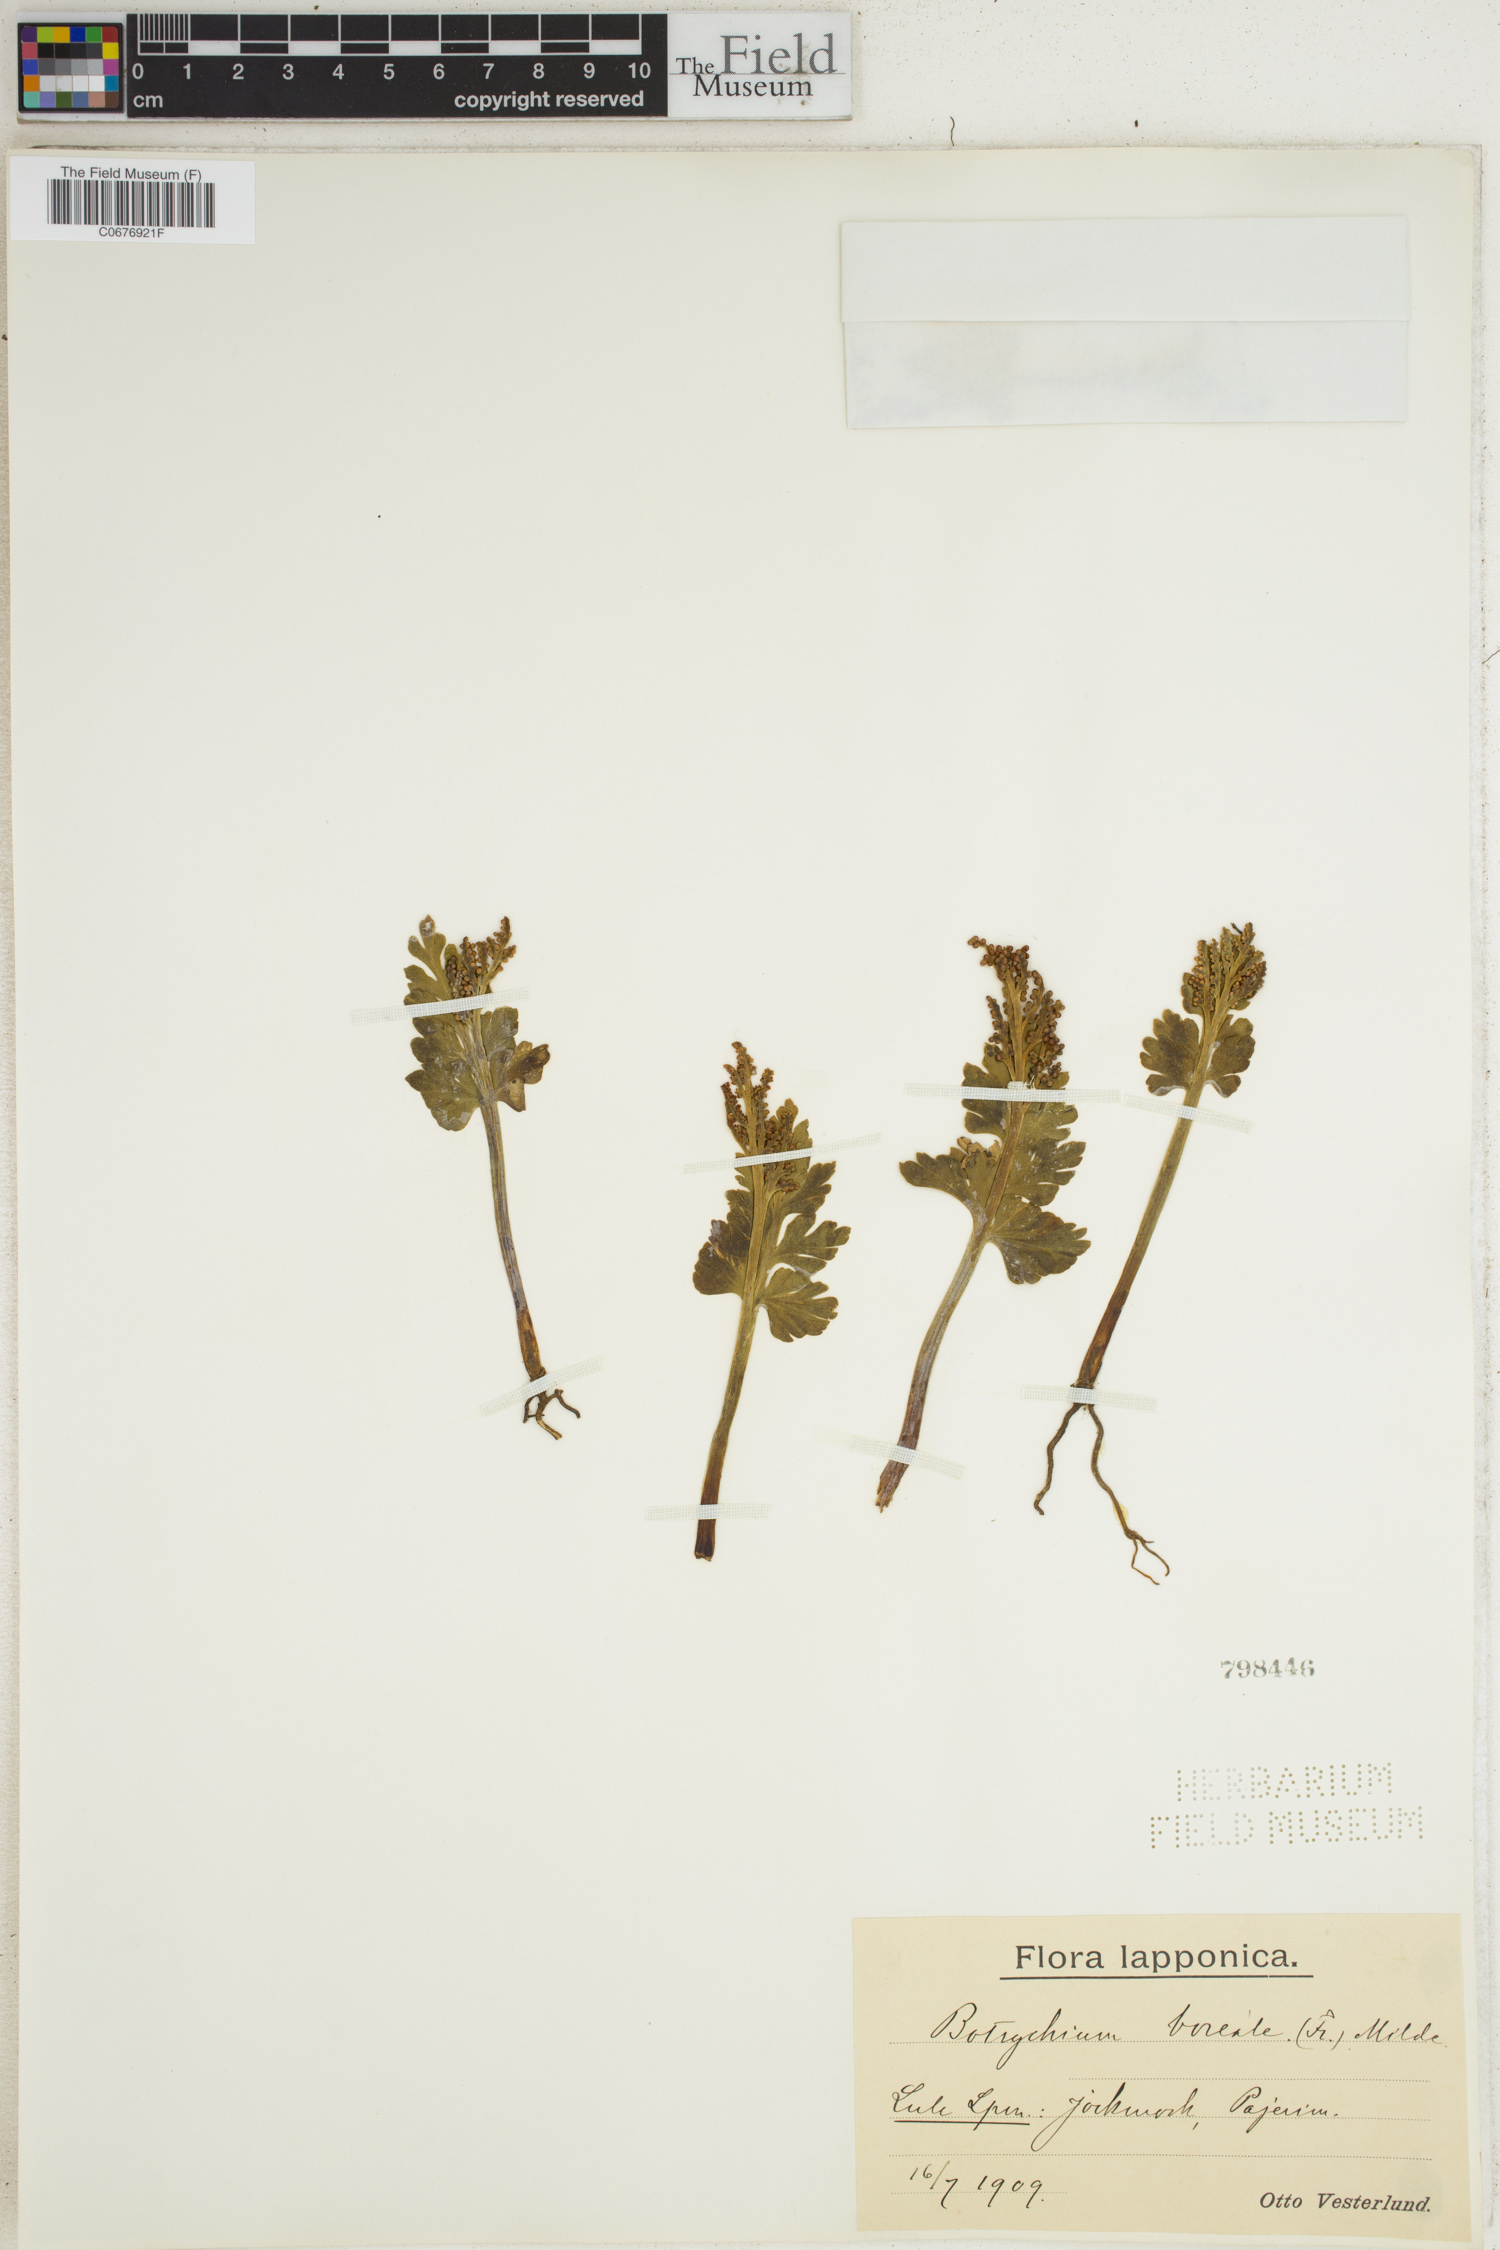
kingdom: Plantae
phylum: Tracheophyta
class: Polypodiopsida
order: Ophioglossales
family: Ophioglossaceae
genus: Botrychium
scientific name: Botrychium boreale
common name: Boreal moonwort
